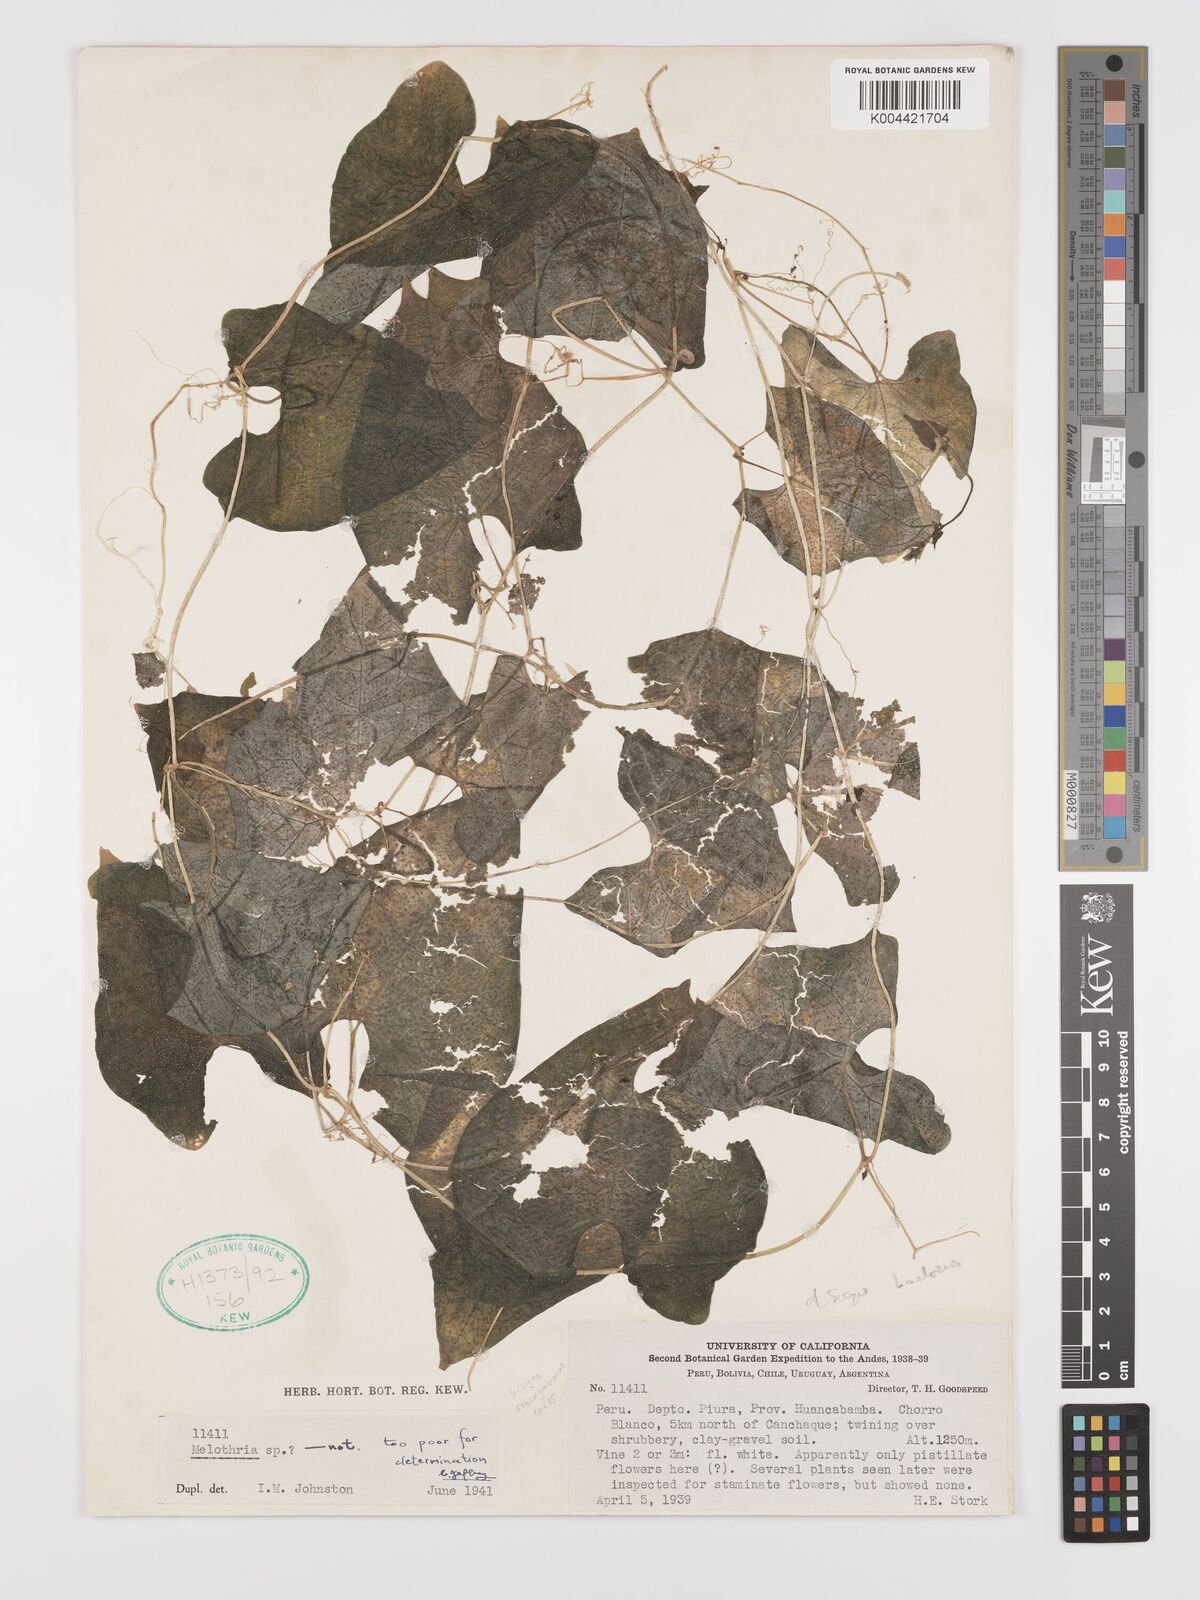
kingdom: Plantae
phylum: Tracheophyta
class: Magnoliopsida
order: Cucurbitales
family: Cucurbitaceae
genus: Sicyos
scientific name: Sicyos montanus
